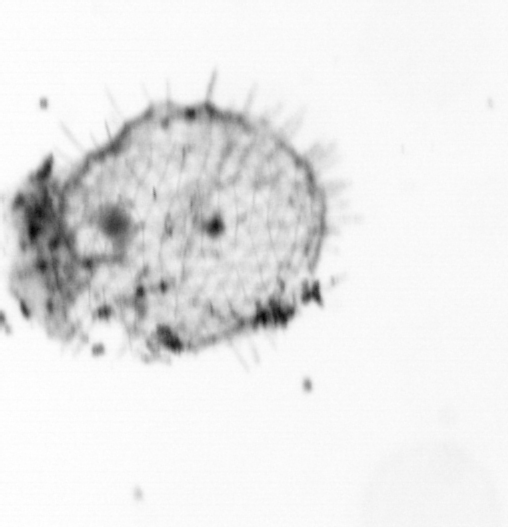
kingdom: Animalia
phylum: Chordata
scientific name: Chordata
